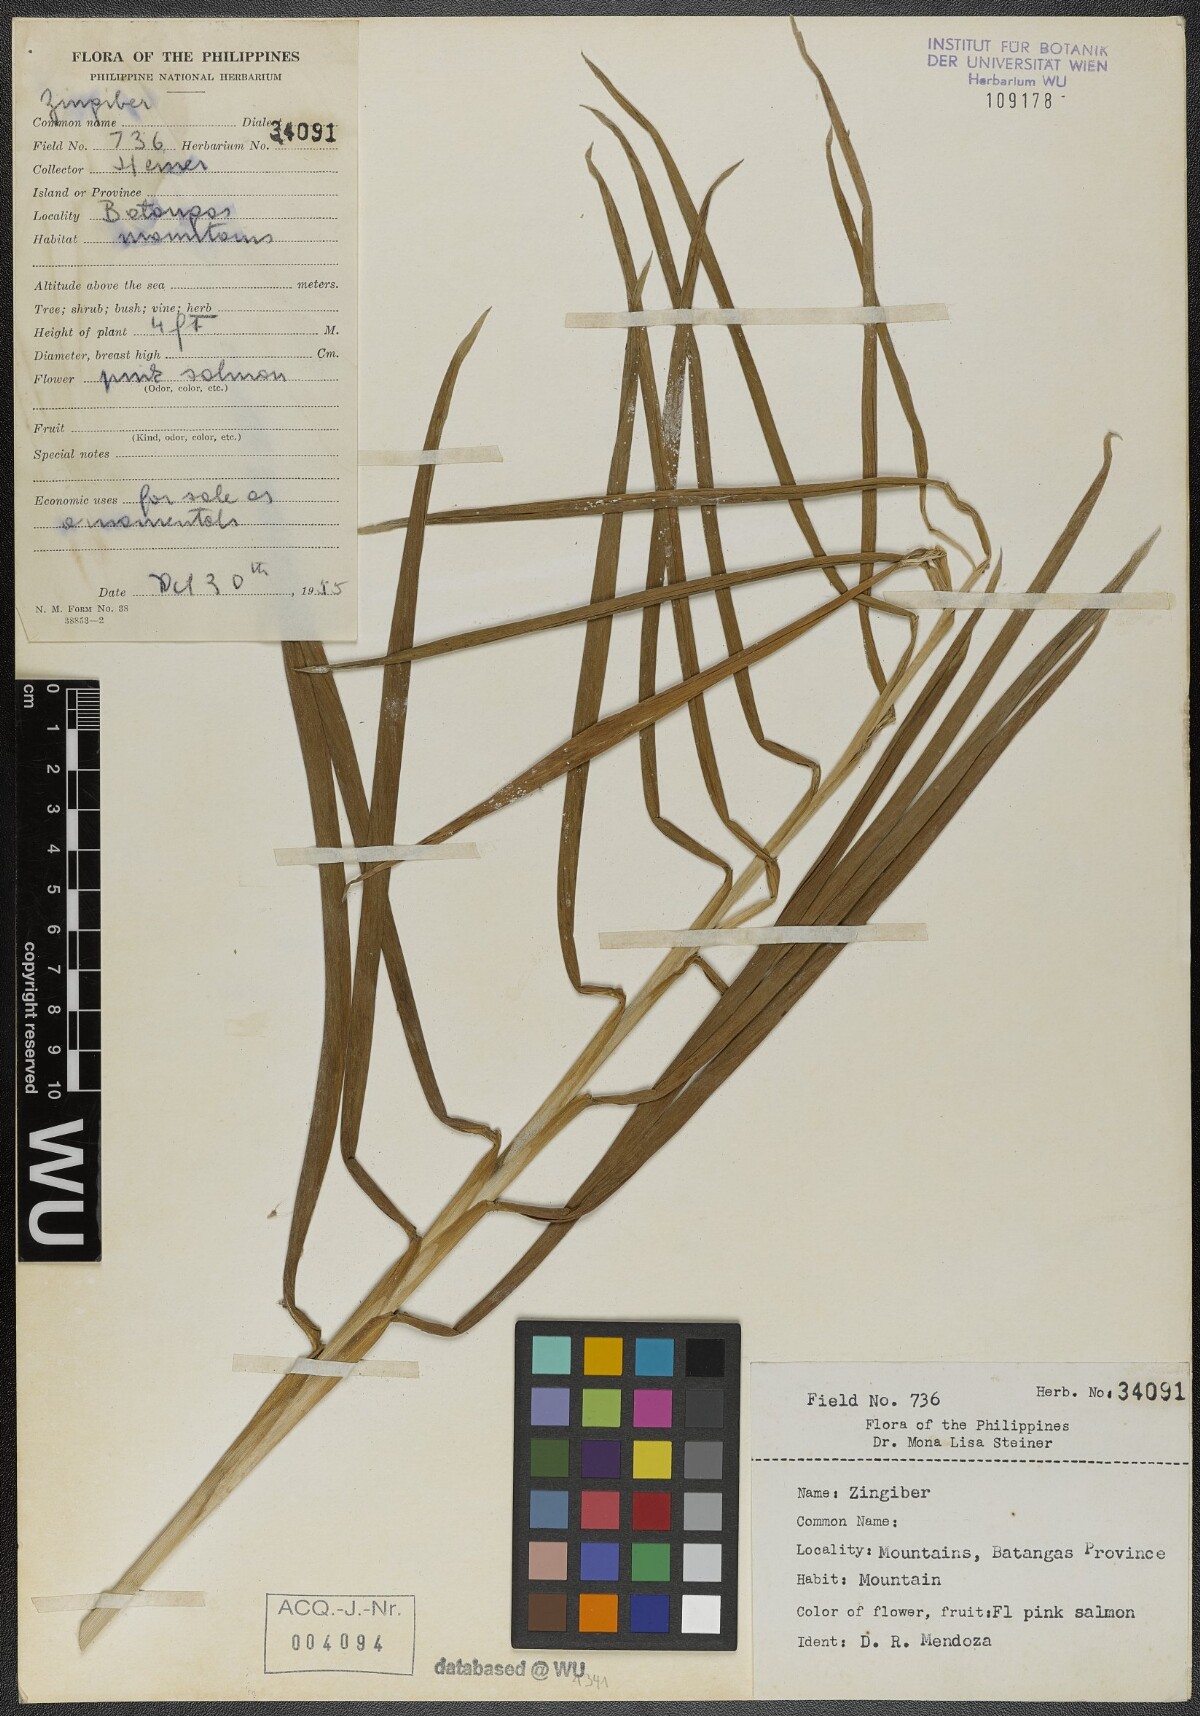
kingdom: Plantae
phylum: Tracheophyta
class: Liliopsida
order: Zingiberales
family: Zingiberaceae
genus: Zingiber
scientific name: Zingiber
